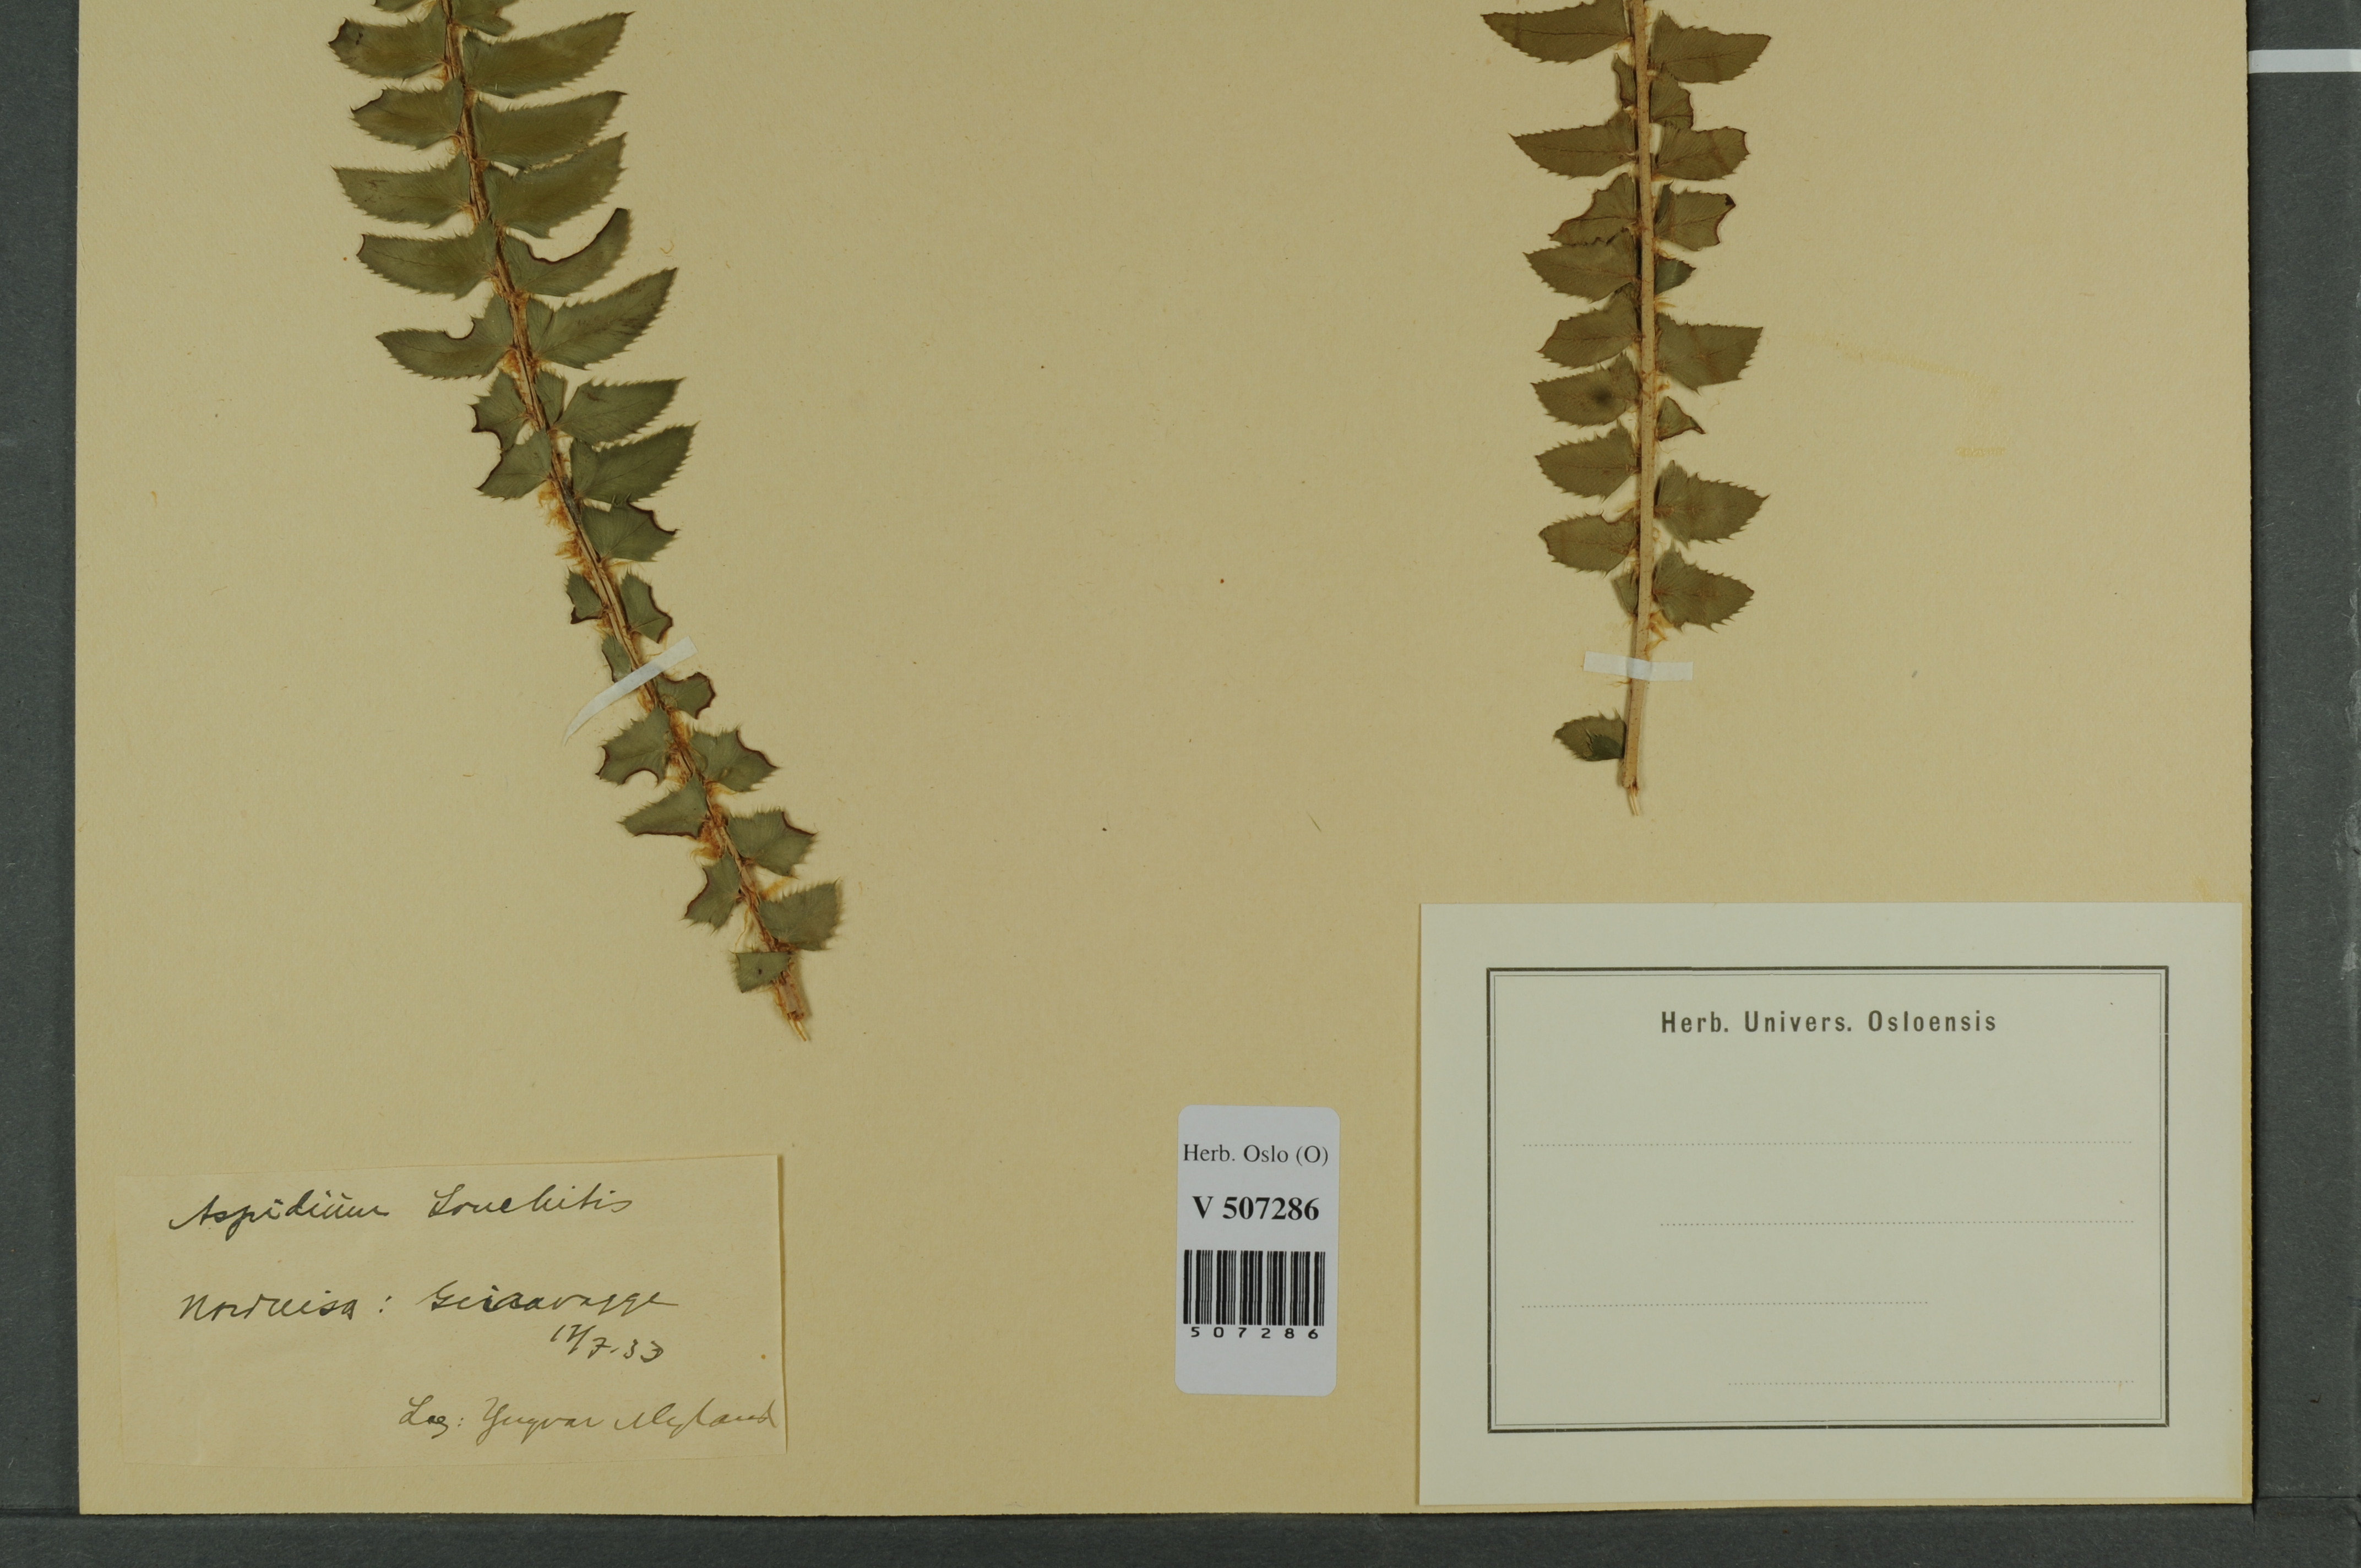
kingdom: Plantae
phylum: Tracheophyta
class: Polypodiopsida
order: Polypodiales
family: Dryopteridaceae
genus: Polystichum
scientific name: Polystichum lonchitis
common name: Holly fern
